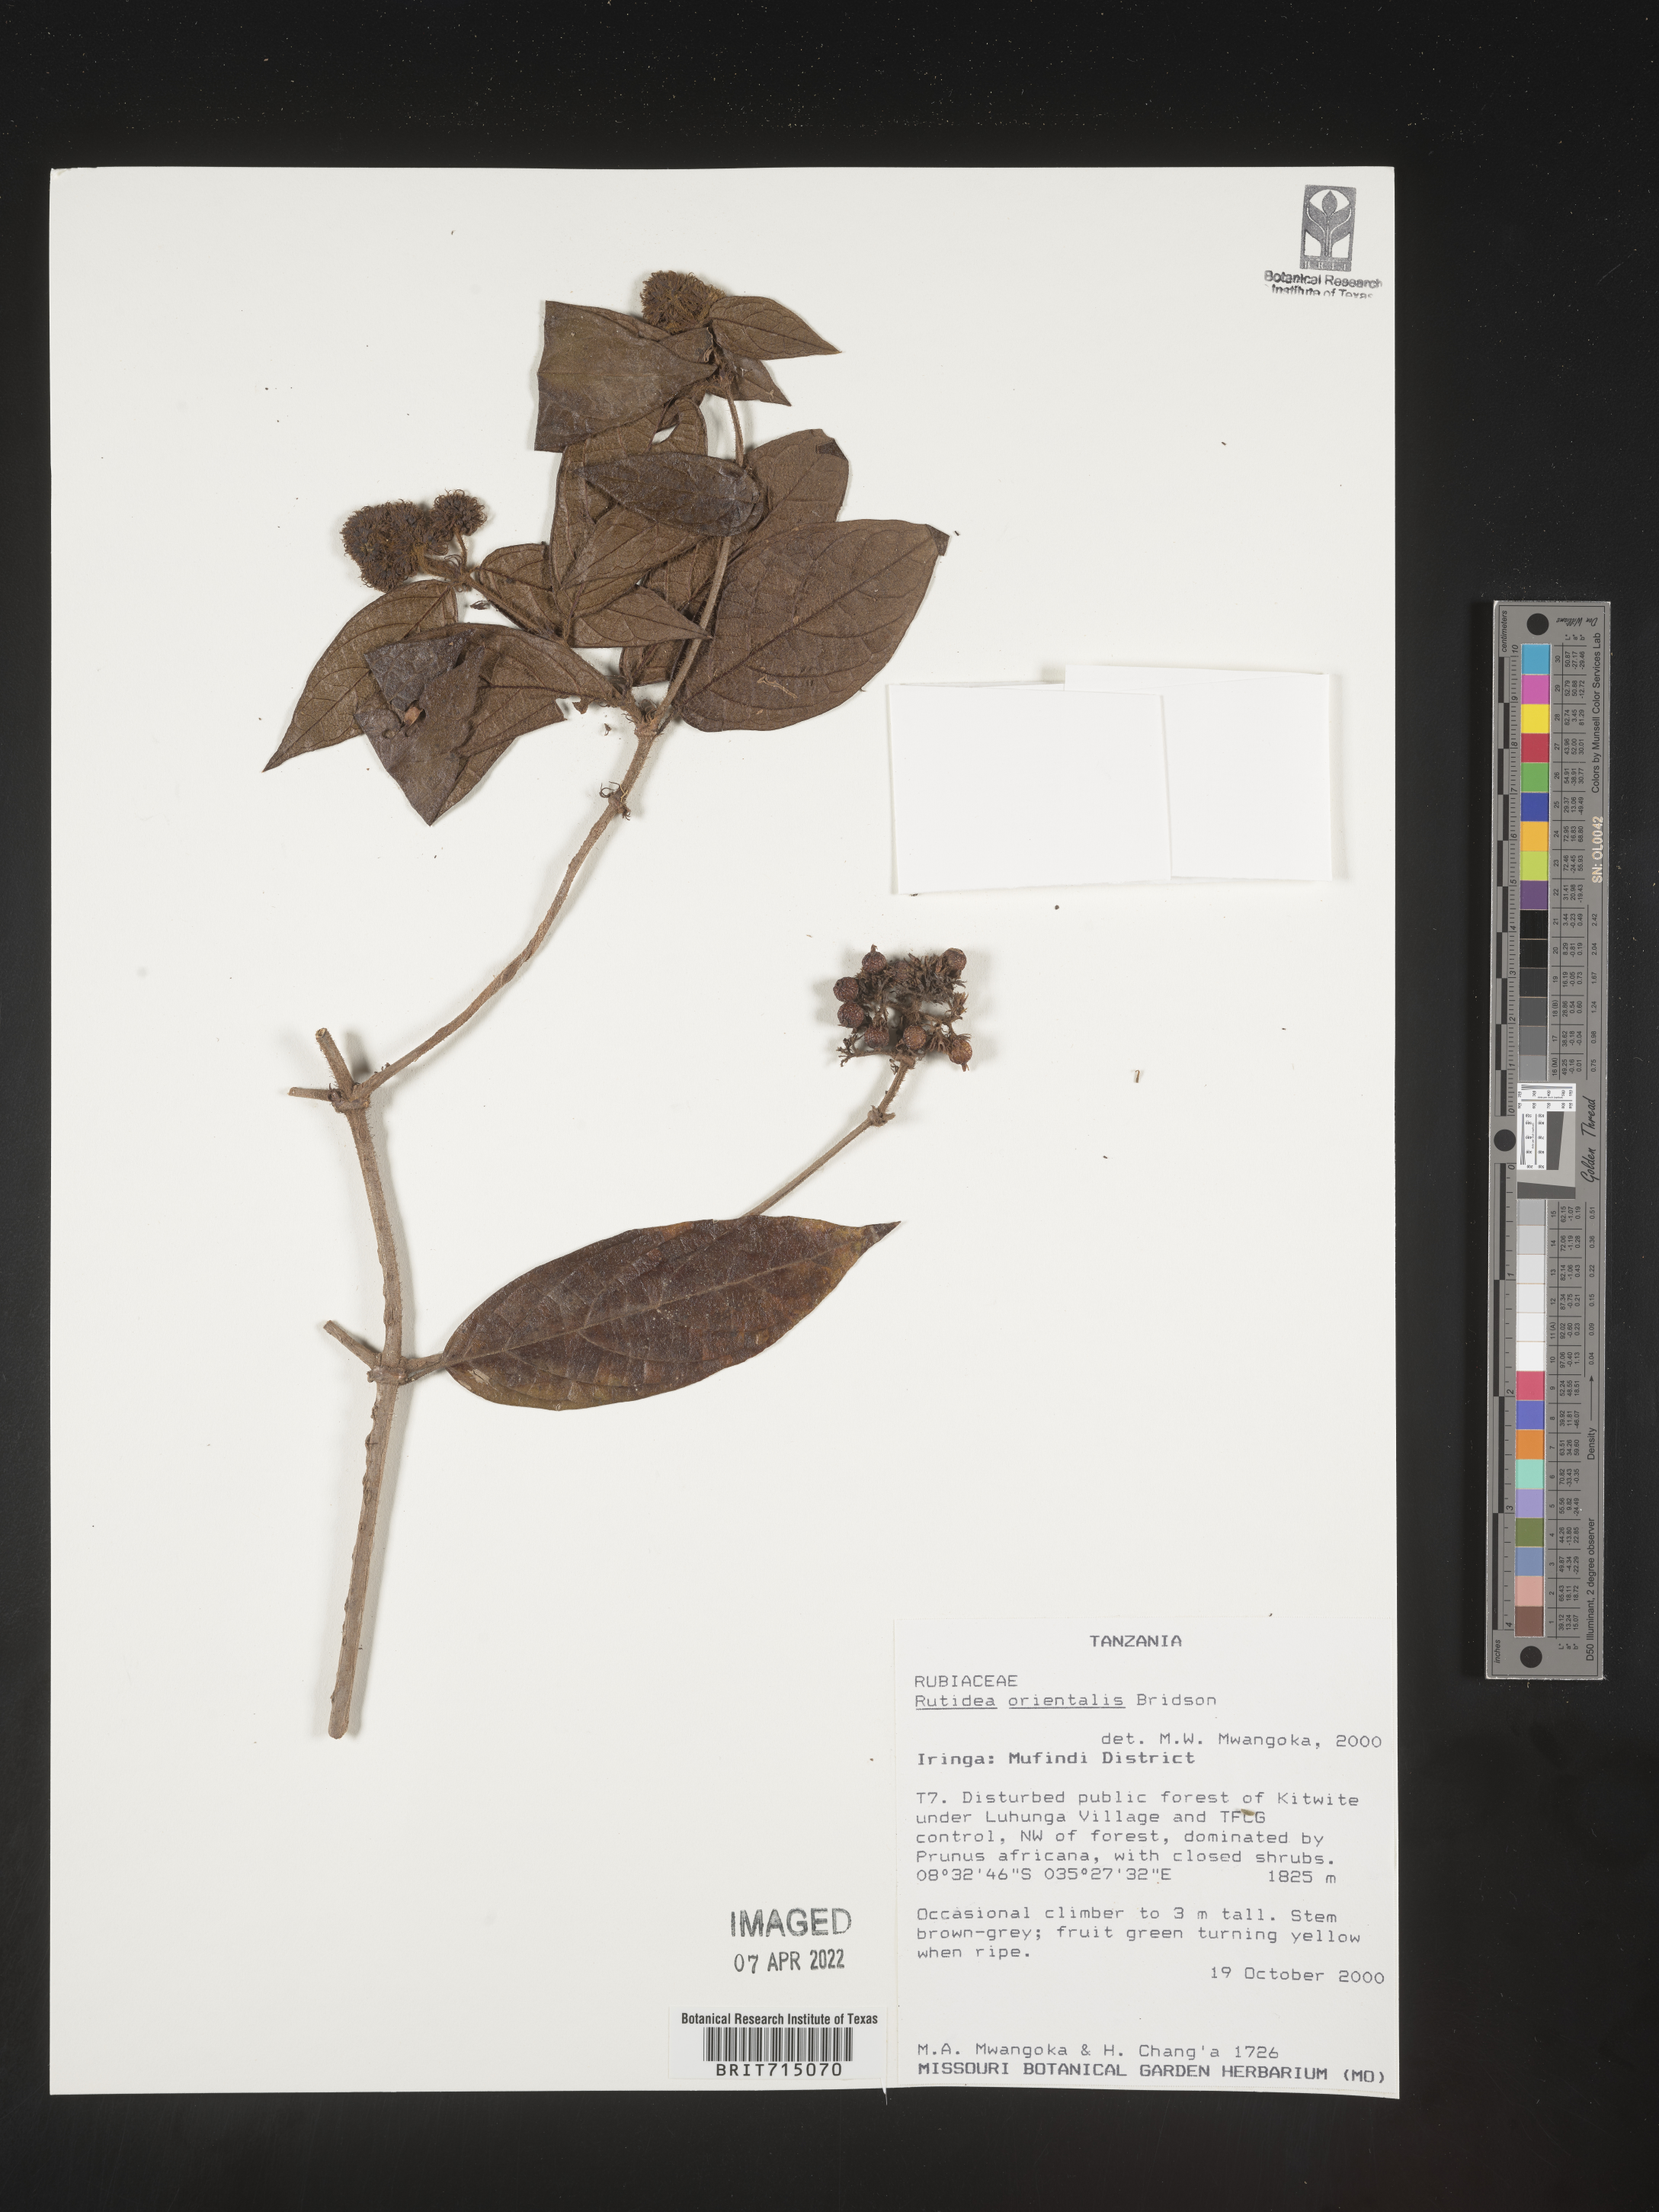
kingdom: Plantae
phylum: Tracheophyta
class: Magnoliopsida
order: Gentianales
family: Rubiaceae
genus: Rutidea
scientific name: Rutidea
